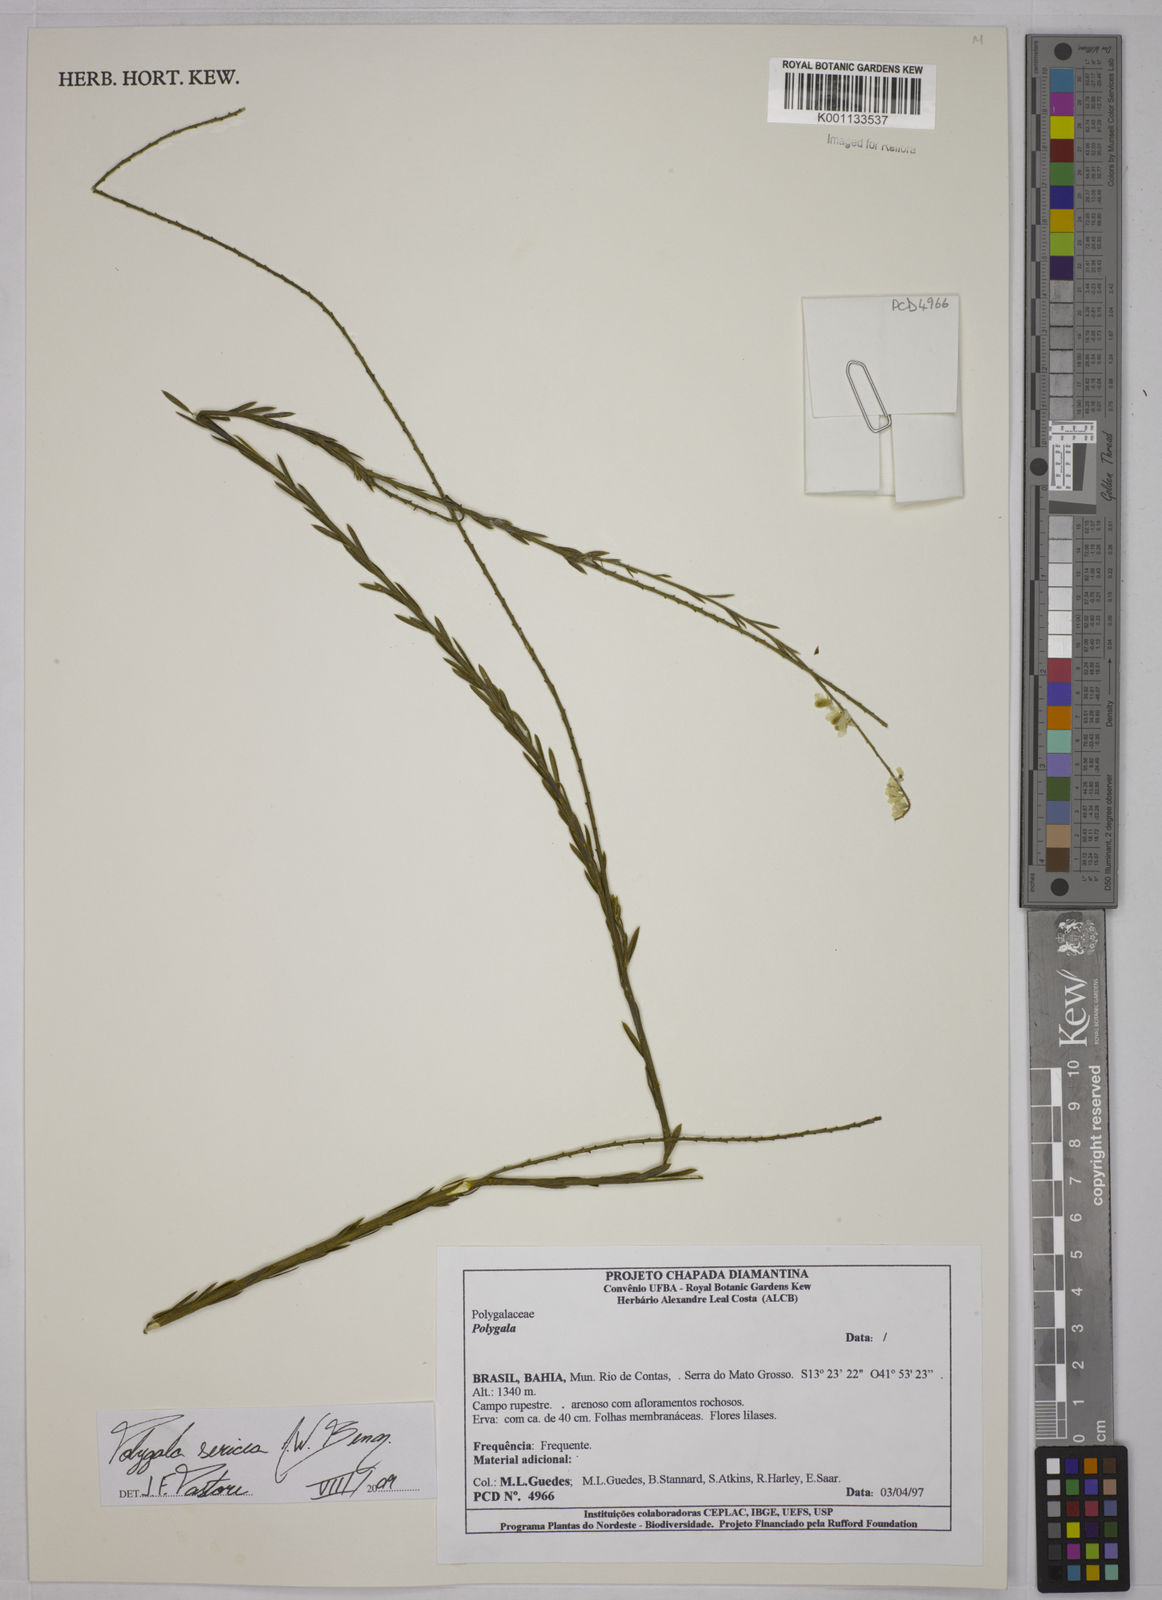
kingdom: Plantae
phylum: Tracheophyta
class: Magnoliopsida
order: Fabales
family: Polygalaceae
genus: Polygala
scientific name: Polygala sericea
